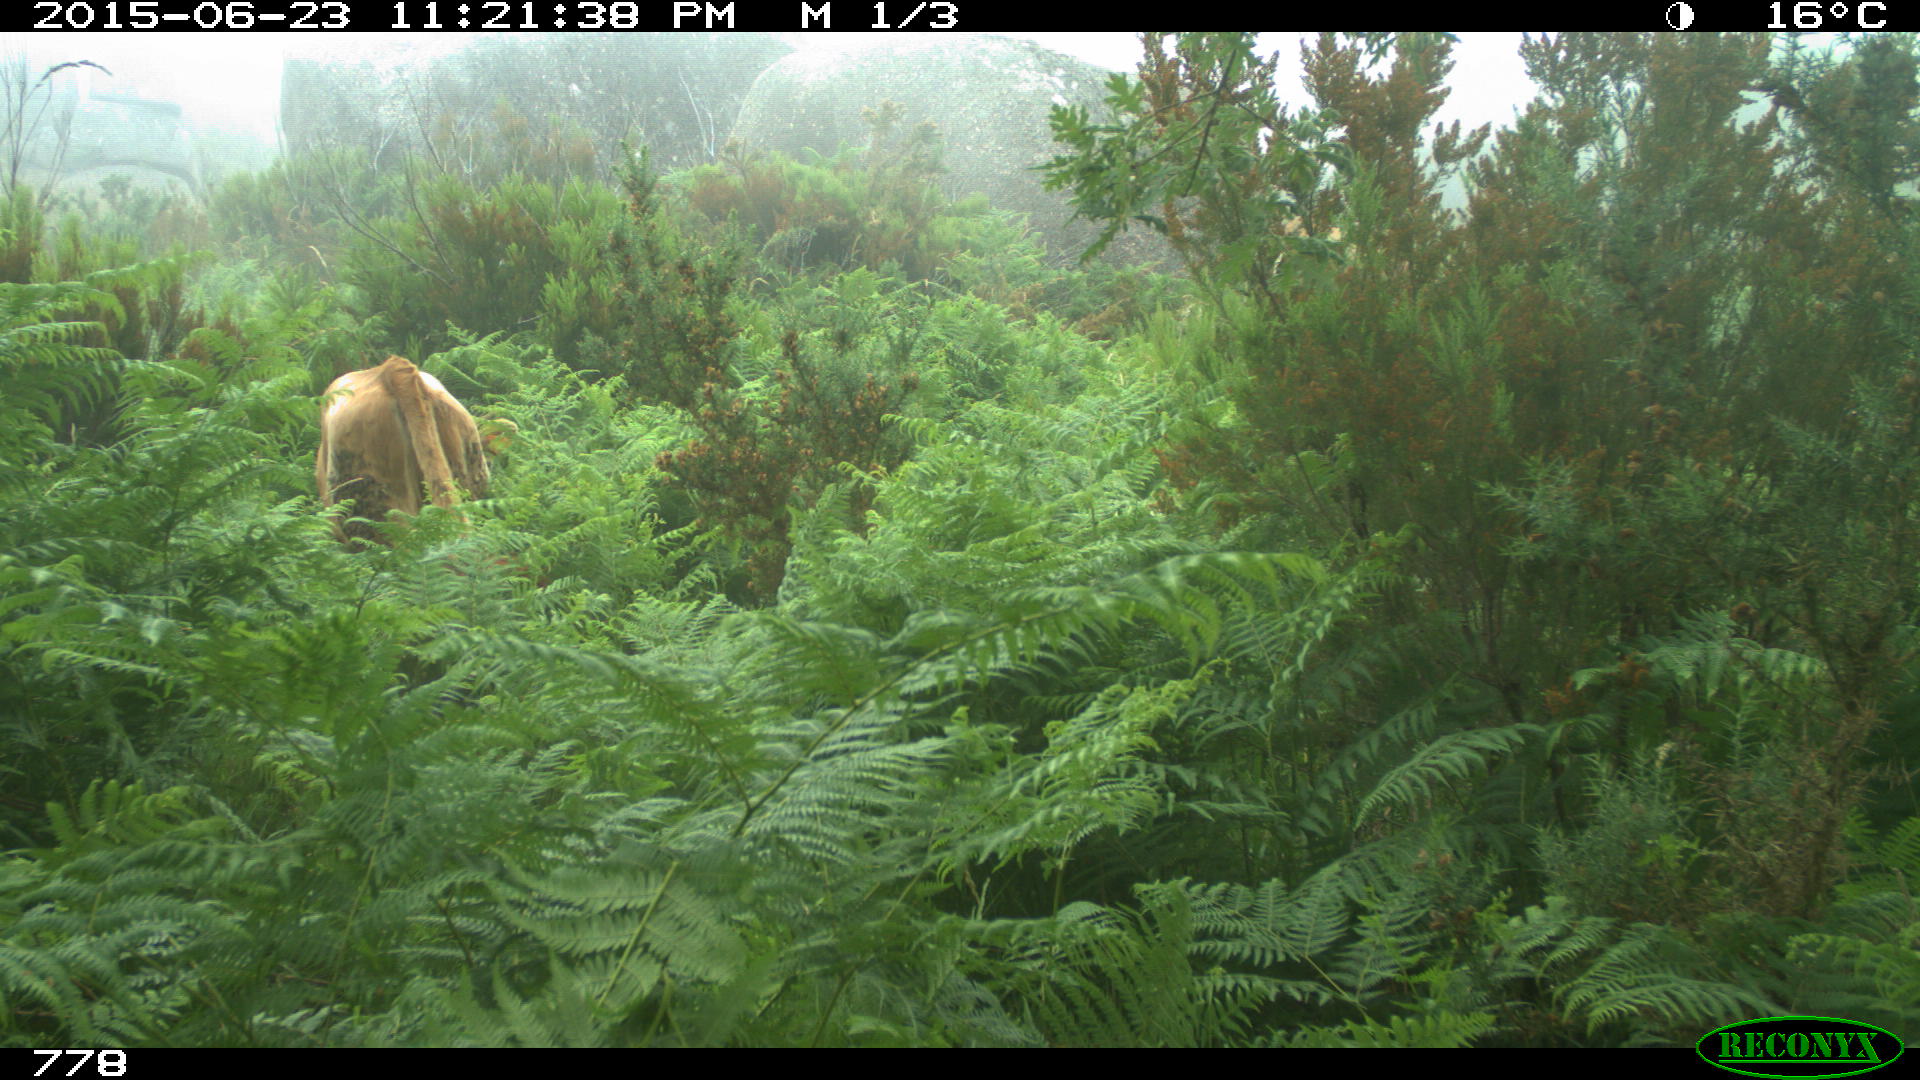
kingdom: Animalia
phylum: Chordata
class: Mammalia
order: Artiodactyla
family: Bovidae
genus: Bos
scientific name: Bos taurus
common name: Domesticated cattle
